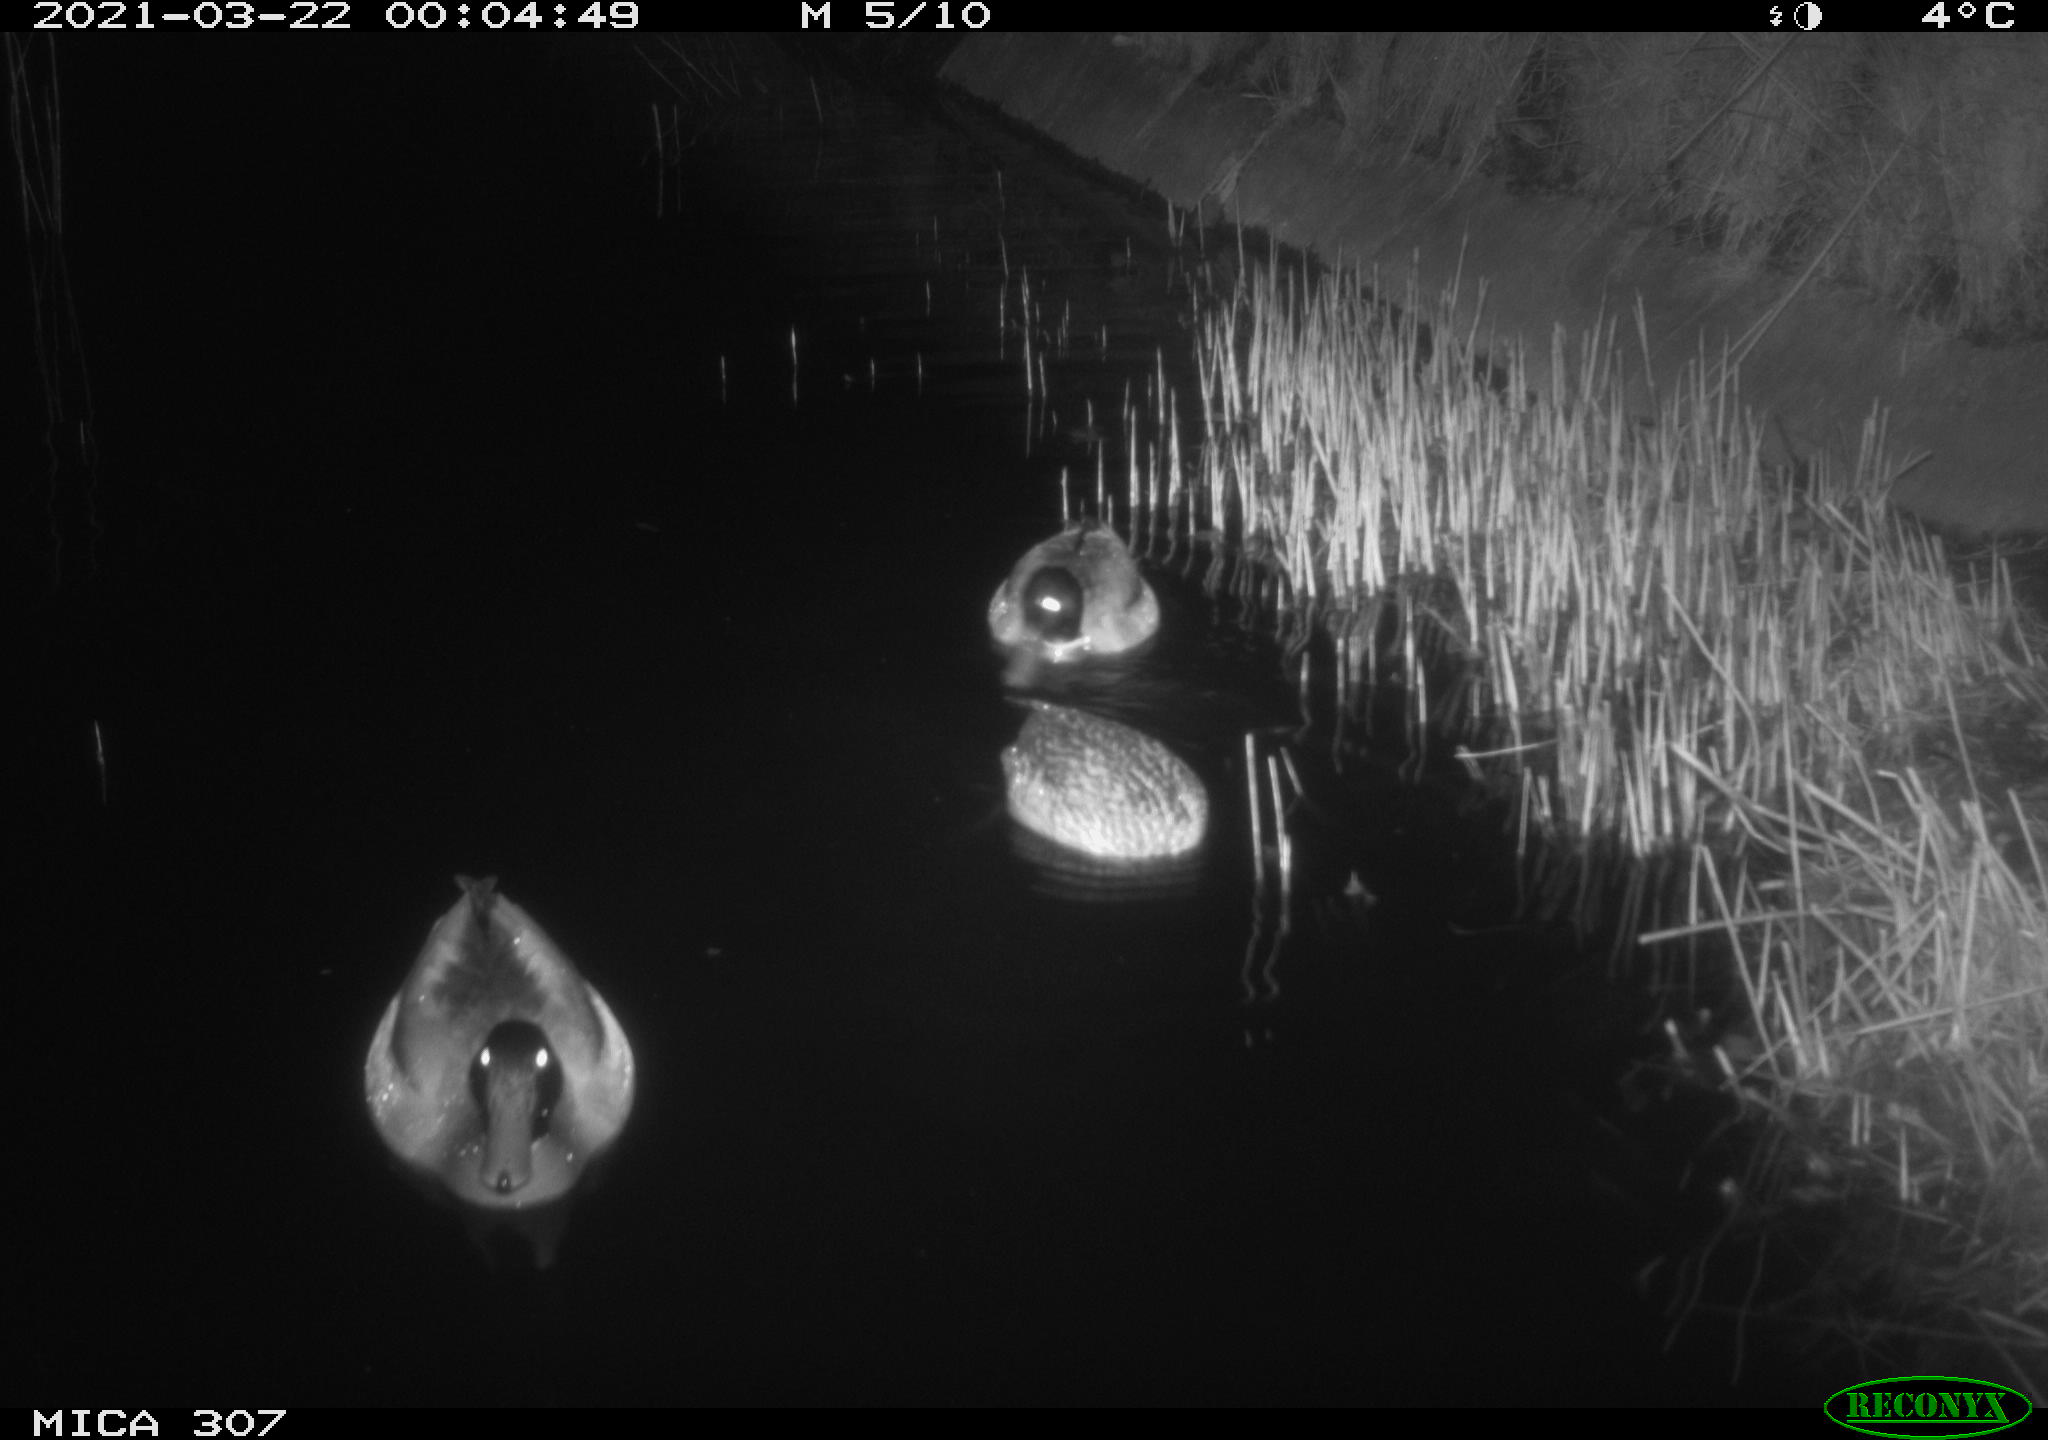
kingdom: Animalia
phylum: Chordata
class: Aves
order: Anseriformes
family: Anatidae
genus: Anas
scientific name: Anas platyrhynchos
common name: Mallard
